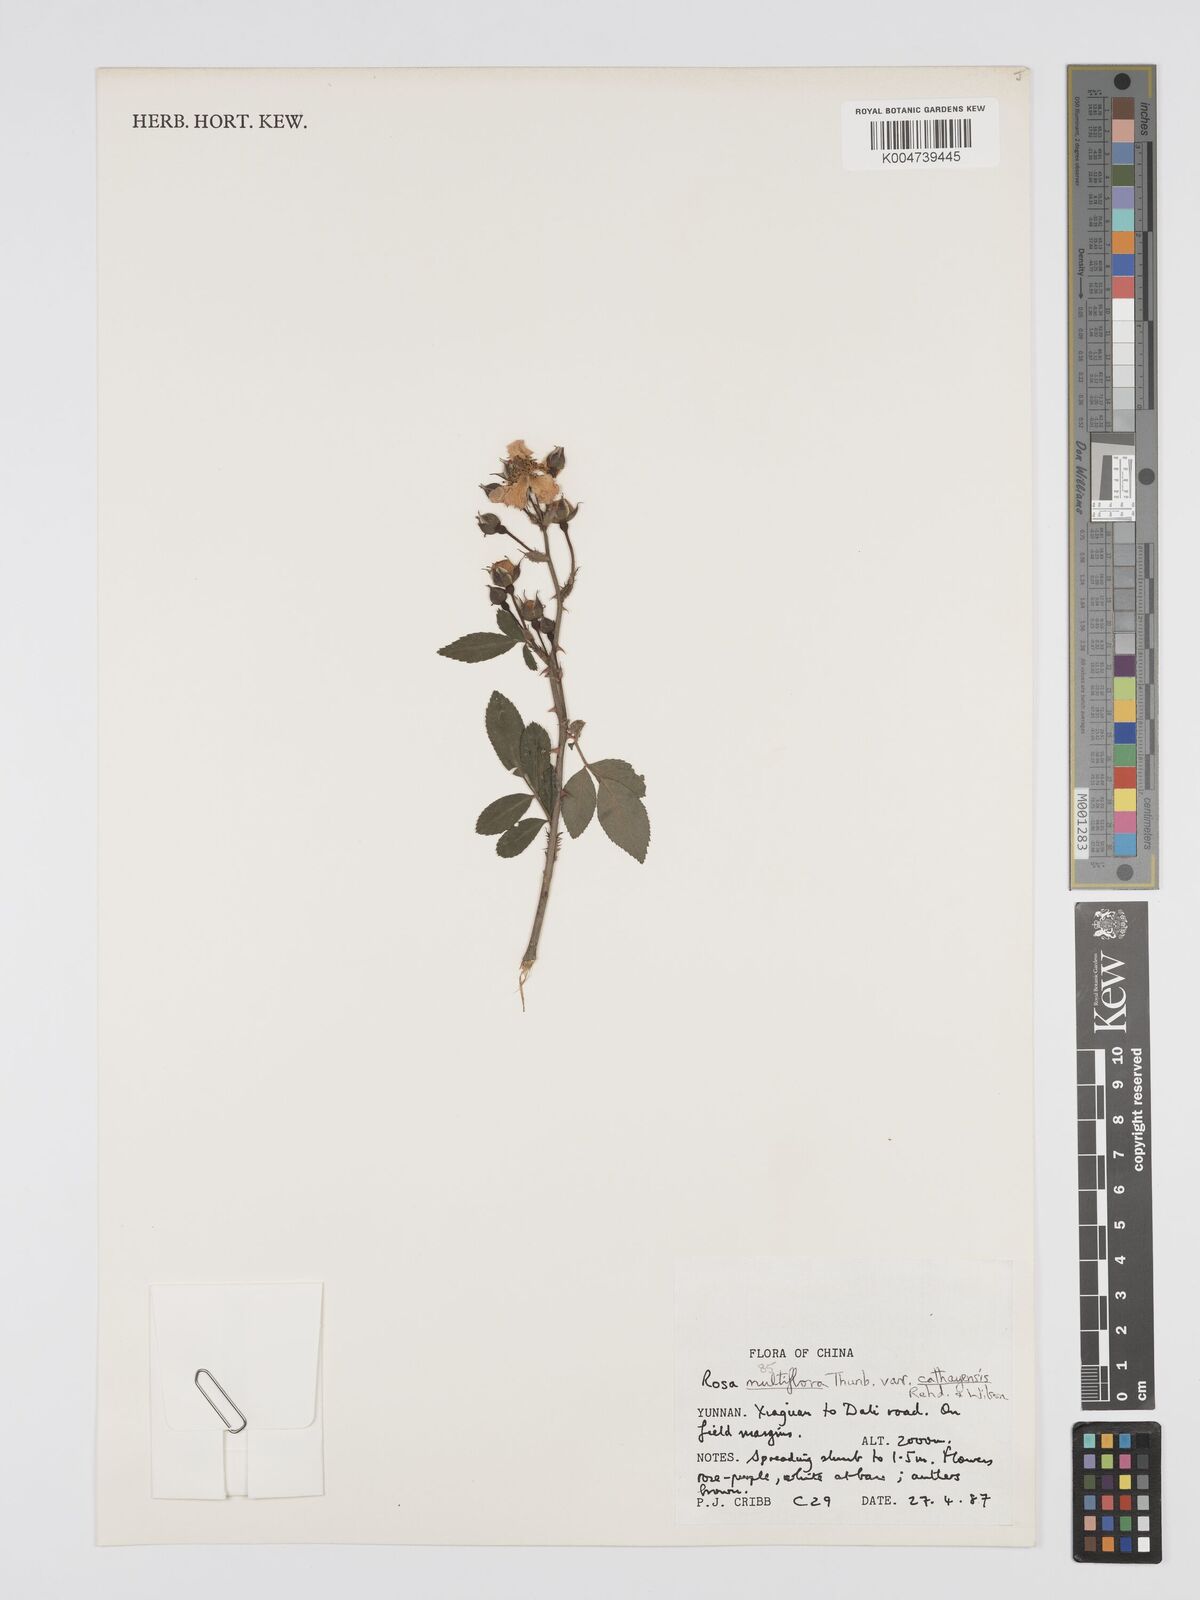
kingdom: Plantae
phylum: Tracheophyta
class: Magnoliopsida
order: Rosales
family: Rosaceae
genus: Rosa
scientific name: Rosa
